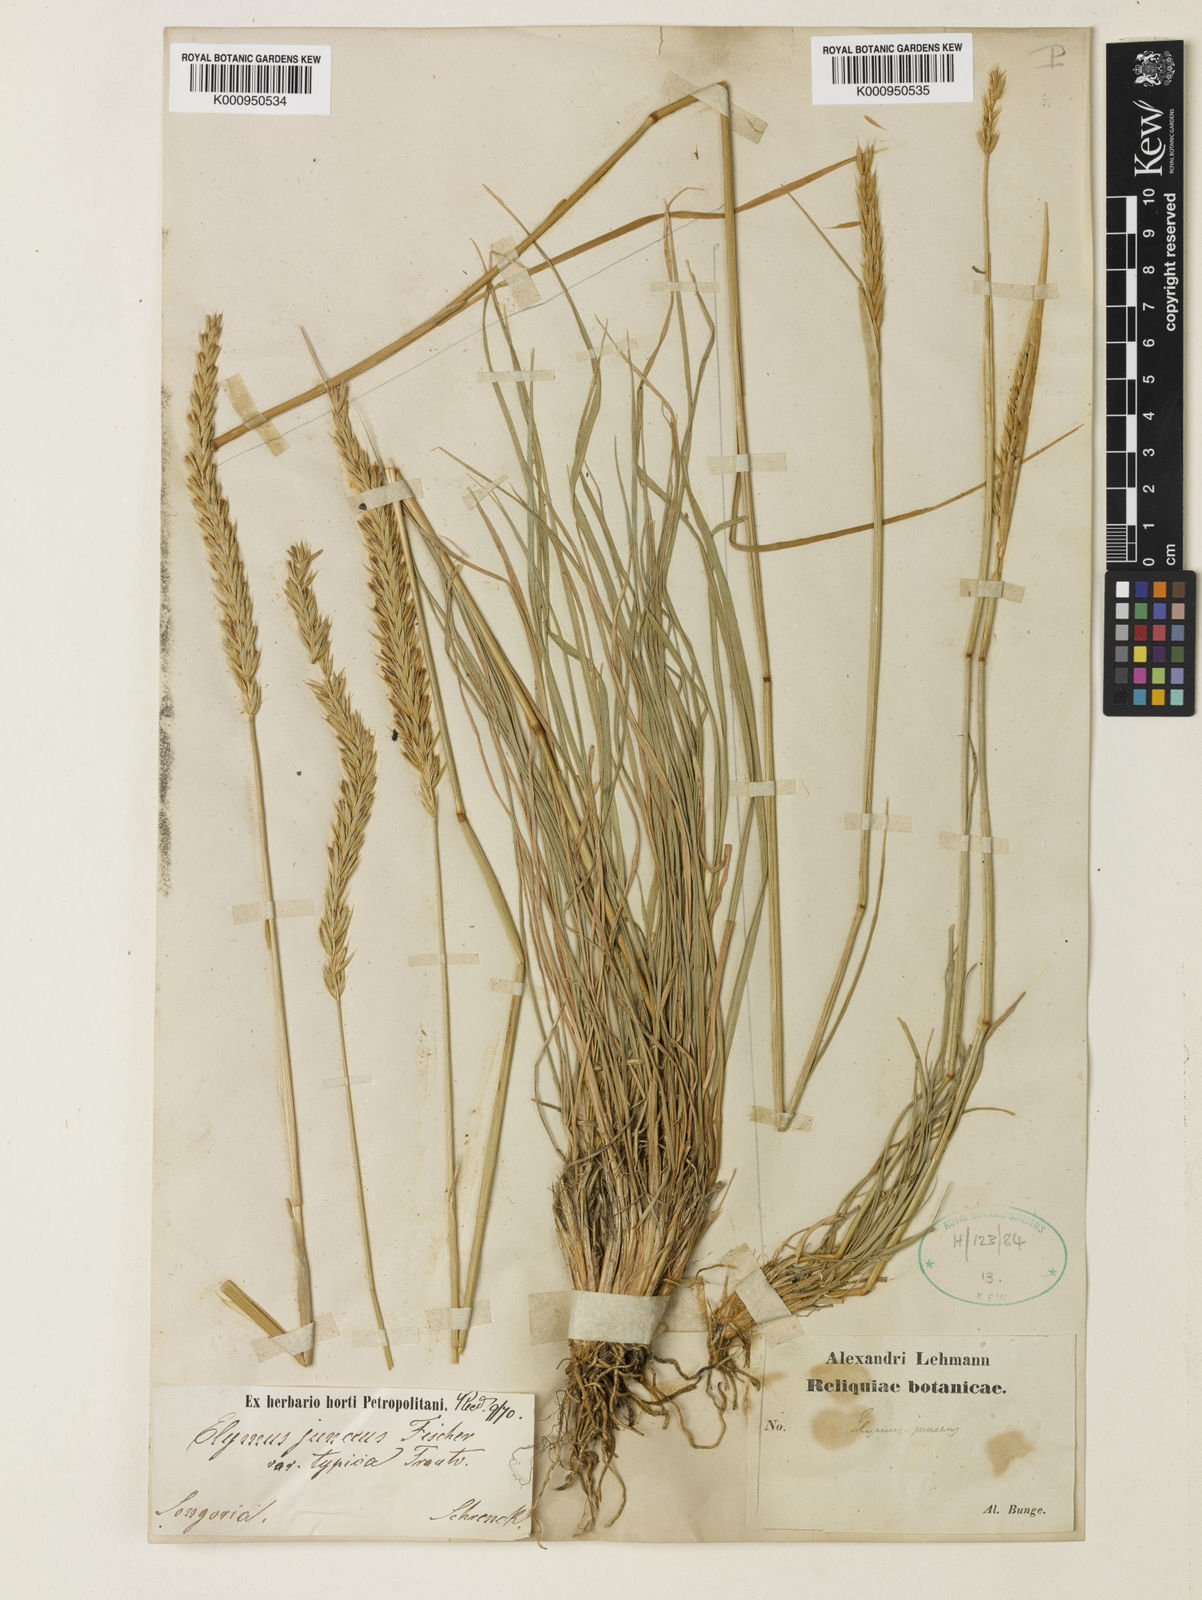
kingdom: Plantae
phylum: Tracheophyta
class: Liliopsida
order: Poales
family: Poaceae
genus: Psathyrostachys
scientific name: Psathyrostachys juncea
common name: Russian wildrye
